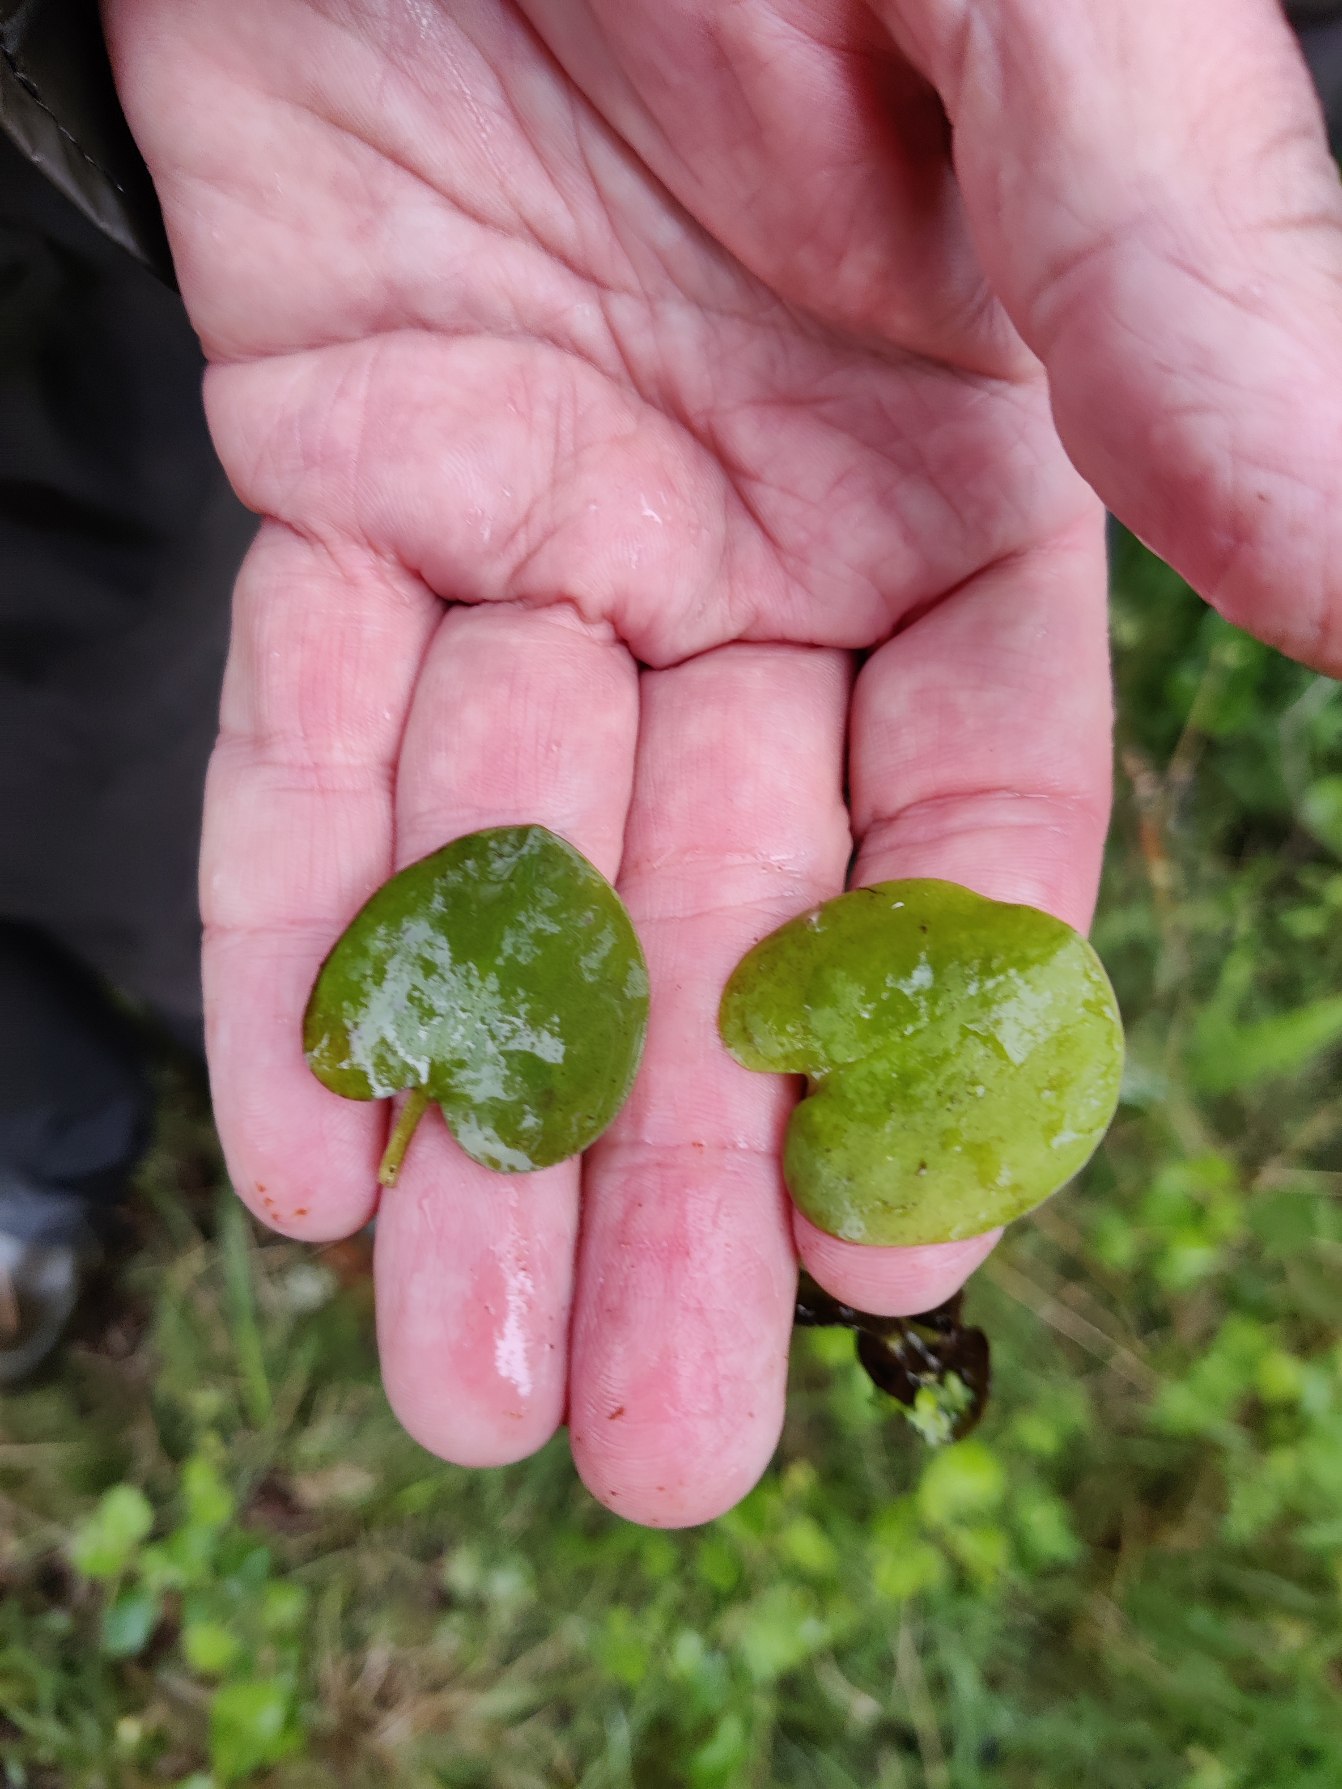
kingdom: Plantae
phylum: Tracheophyta
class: Liliopsida
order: Alismatales
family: Hydrocharitaceae
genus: Hydrocharis
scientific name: Hydrocharis morsus-ranae
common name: Frøbid
